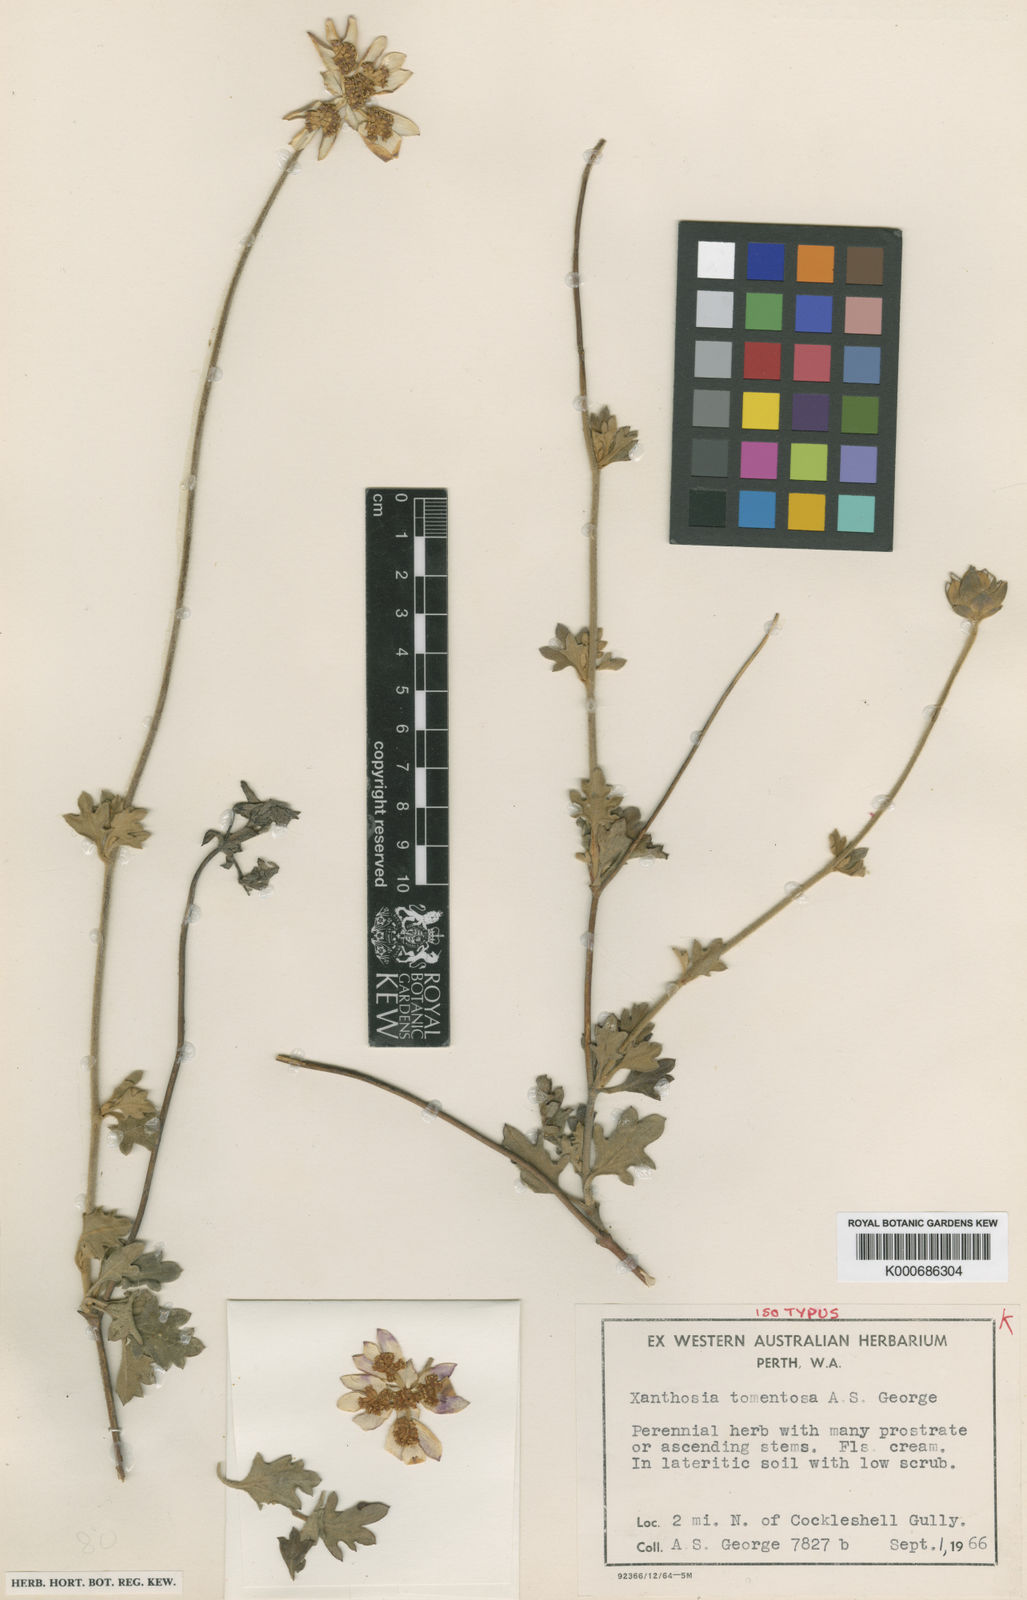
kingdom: Plantae
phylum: Tracheophyta
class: Magnoliopsida
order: Apiales
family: Apiaceae
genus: Xanthosia
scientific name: Xanthosia tomentosa
